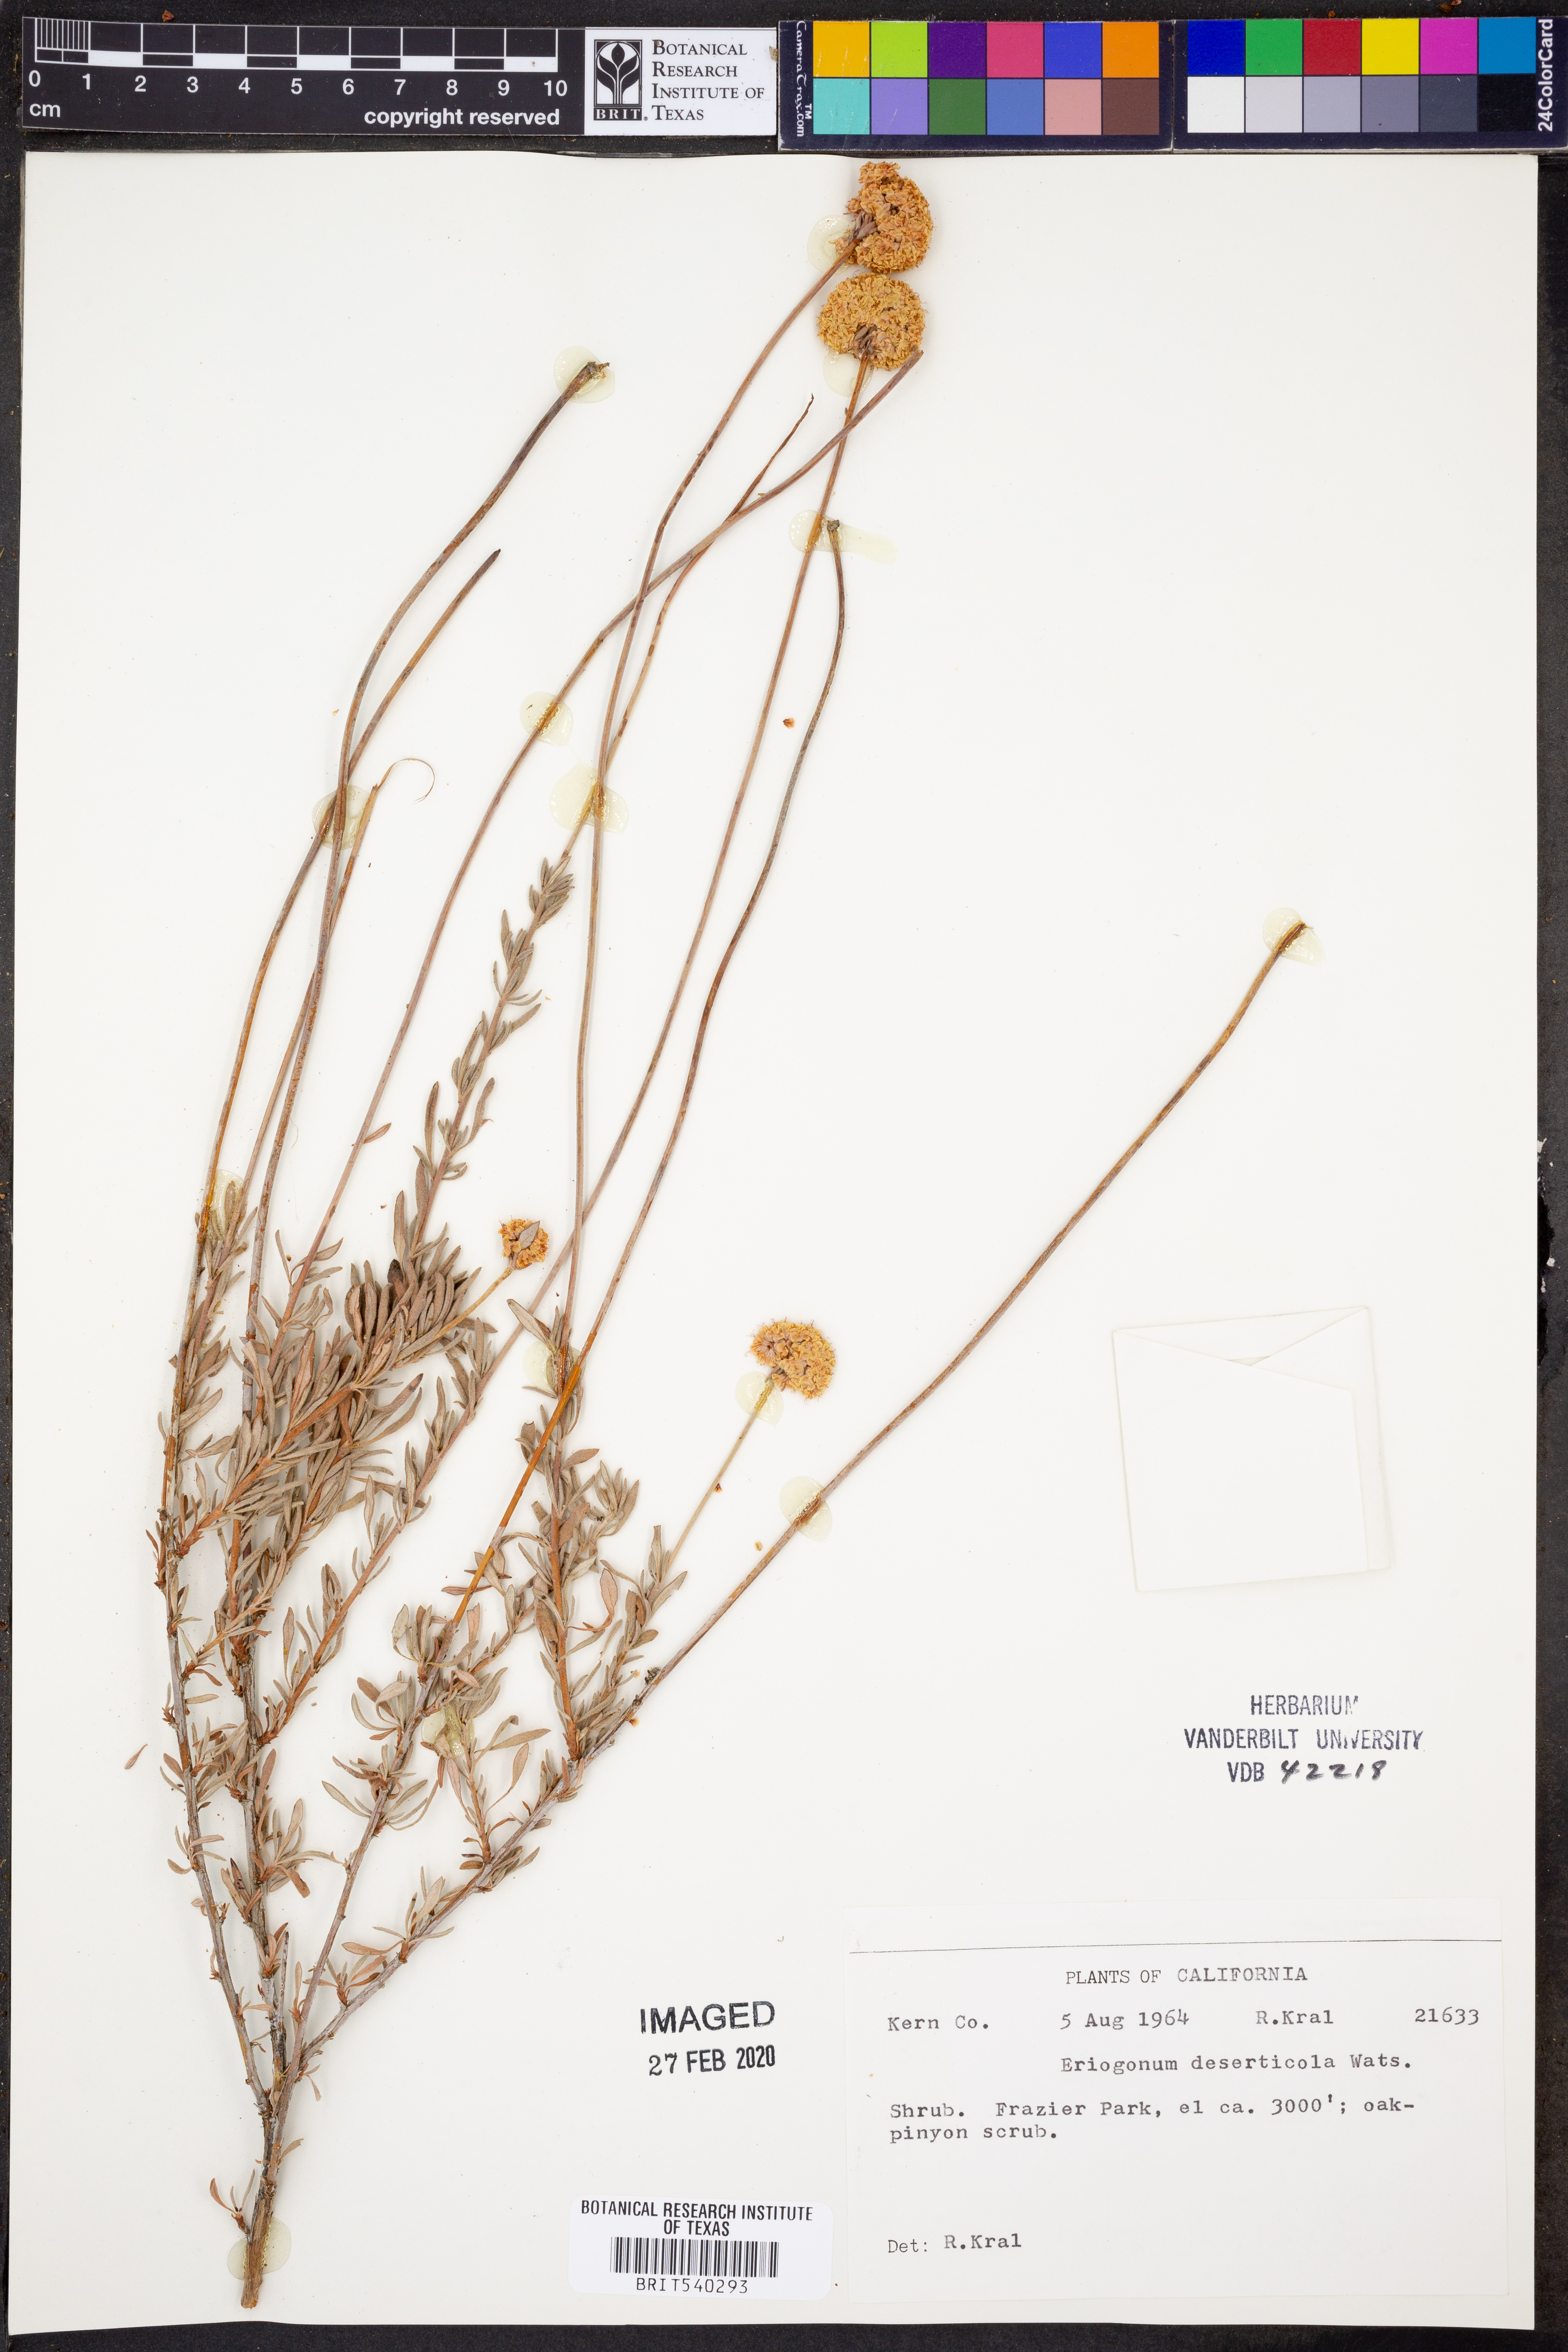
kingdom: Plantae
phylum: Tracheophyta
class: Magnoliopsida
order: Caryophyllales
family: Polygonaceae
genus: Eriogonum
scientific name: Eriogonum deserticola
